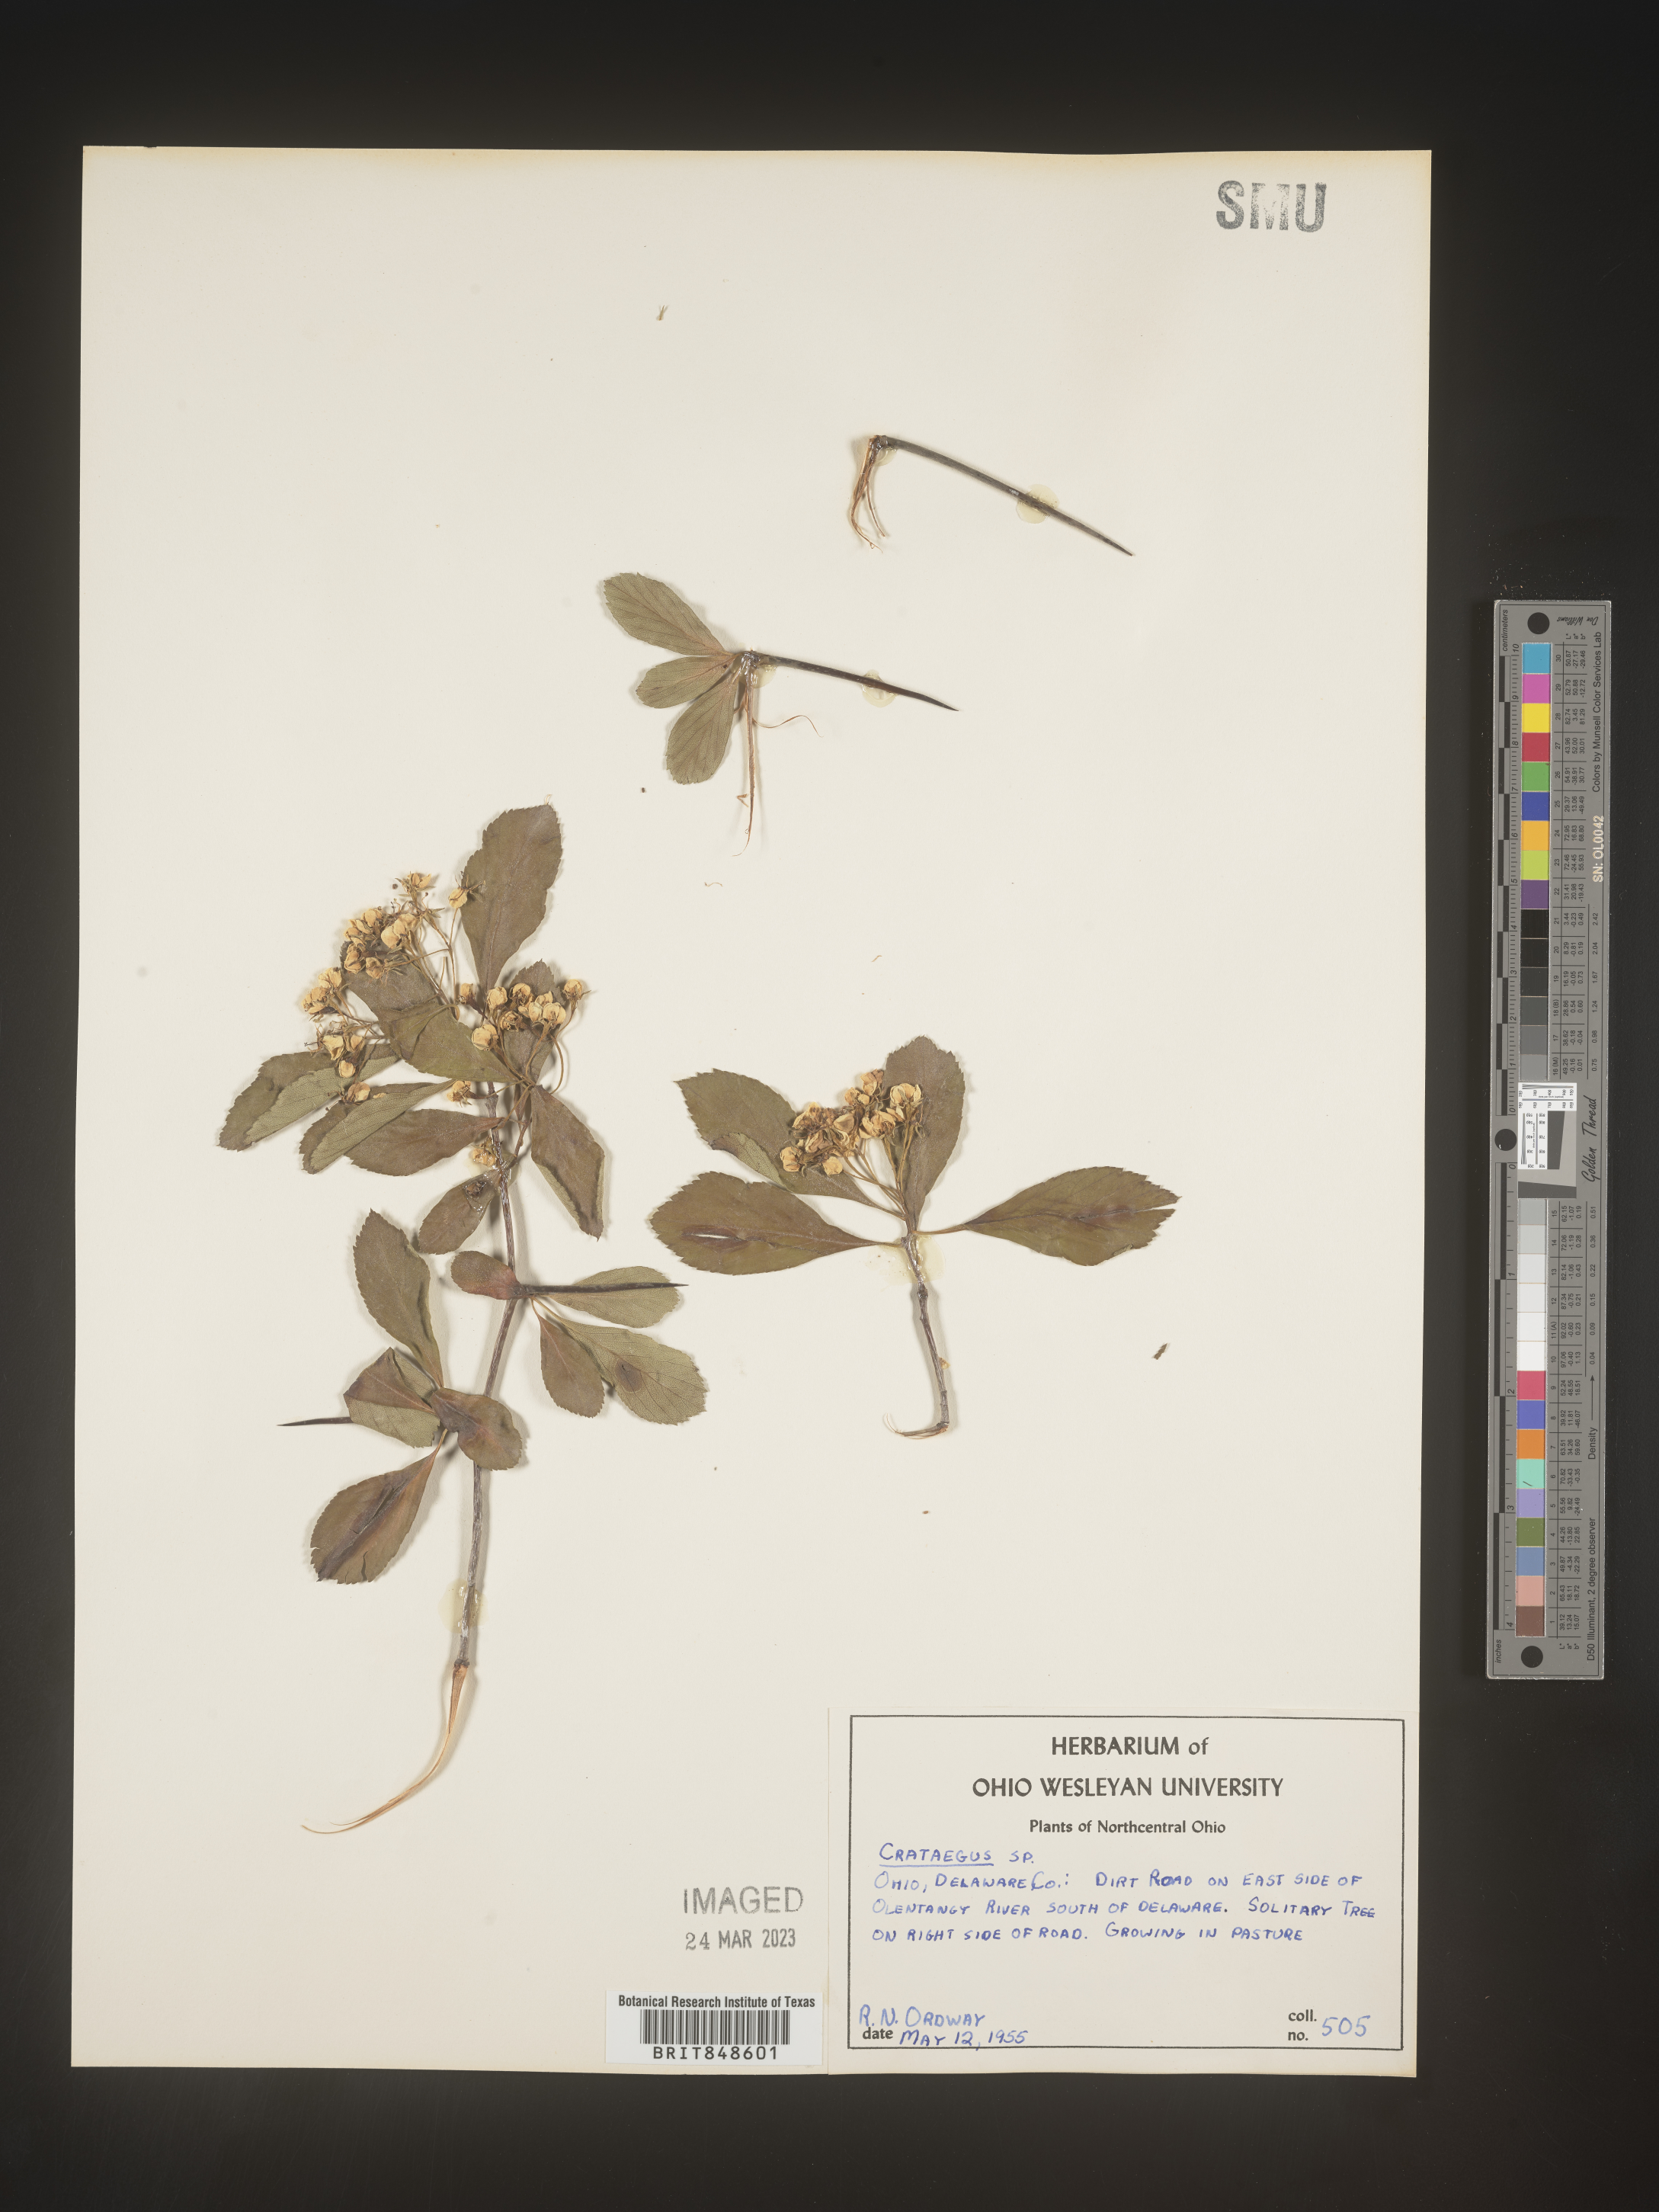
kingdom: Plantae
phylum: Tracheophyta
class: Magnoliopsida
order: Rosales
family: Rosaceae
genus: Crataegus
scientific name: Crataegus
